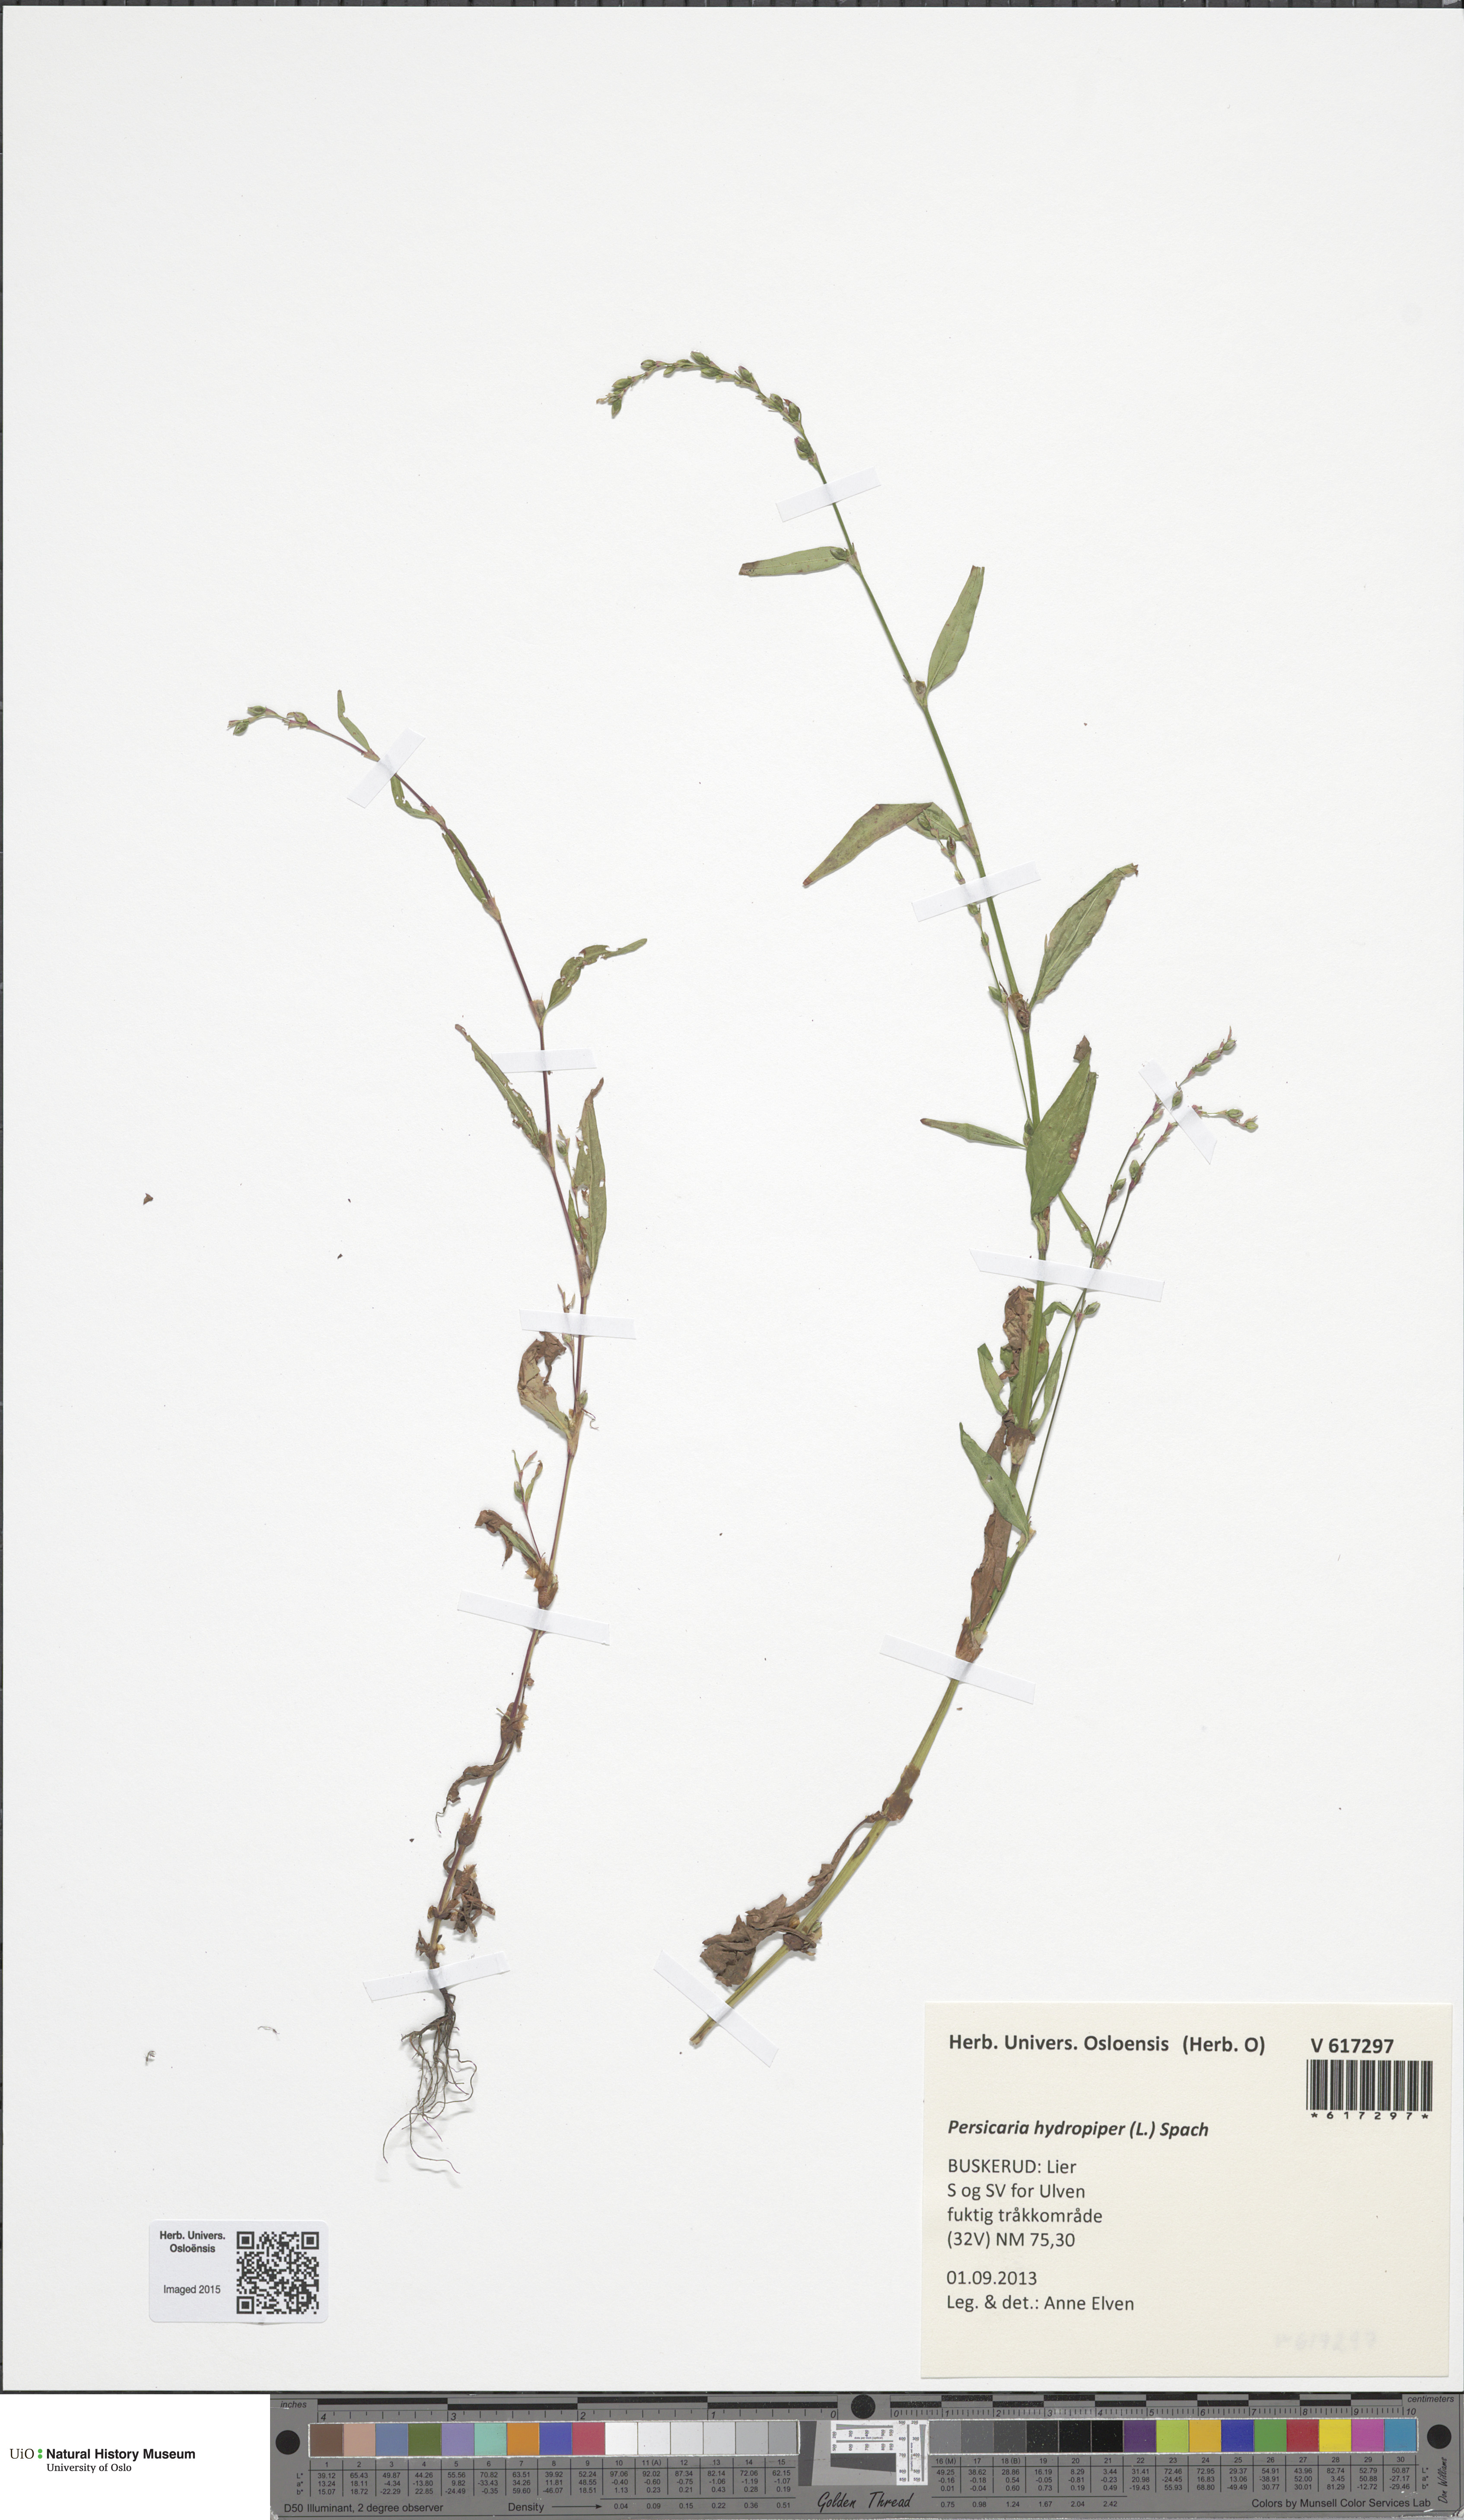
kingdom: Plantae
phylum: Tracheophyta
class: Magnoliopsida
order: Caryophyllales
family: Polygonaceae
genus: Persicaria
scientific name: Persicaria hydropiper
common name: Water-pepper
